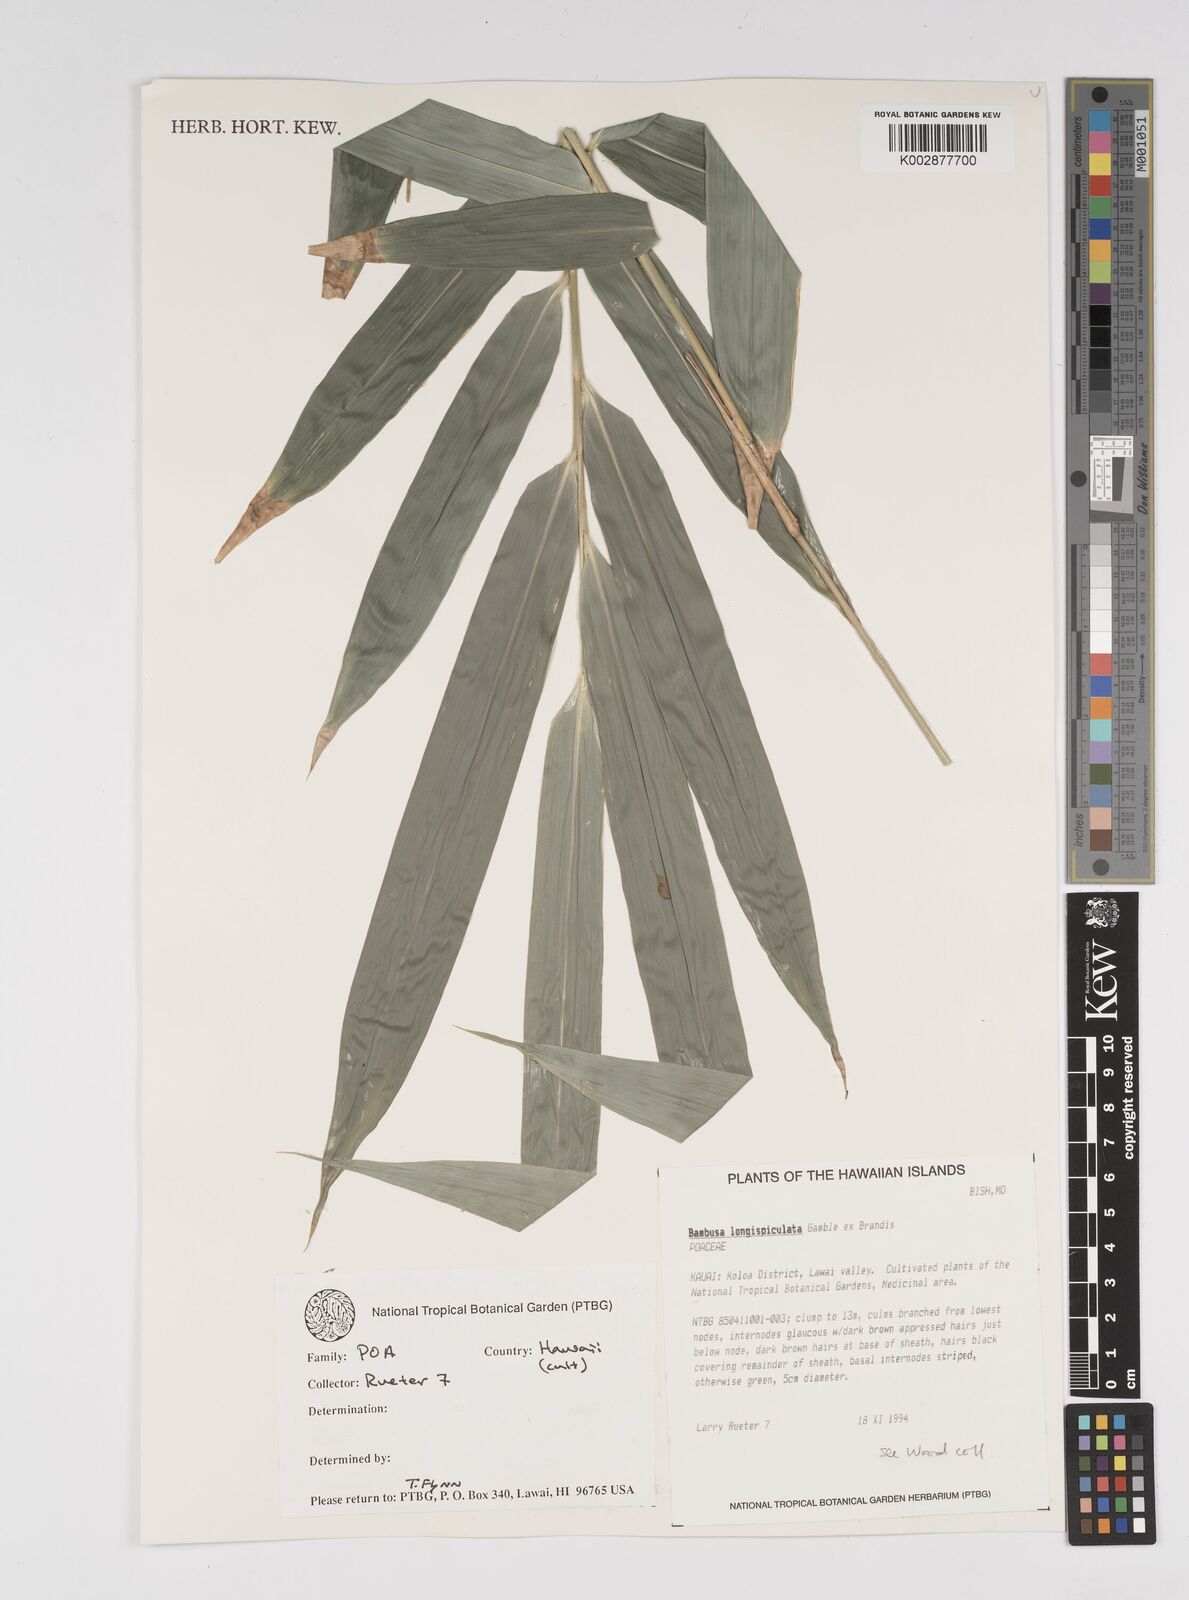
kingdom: Plantae
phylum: Tracheophyta
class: Liliopsida
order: Poales
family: Poaceae
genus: Bambusa
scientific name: Bambusa longispiculata
